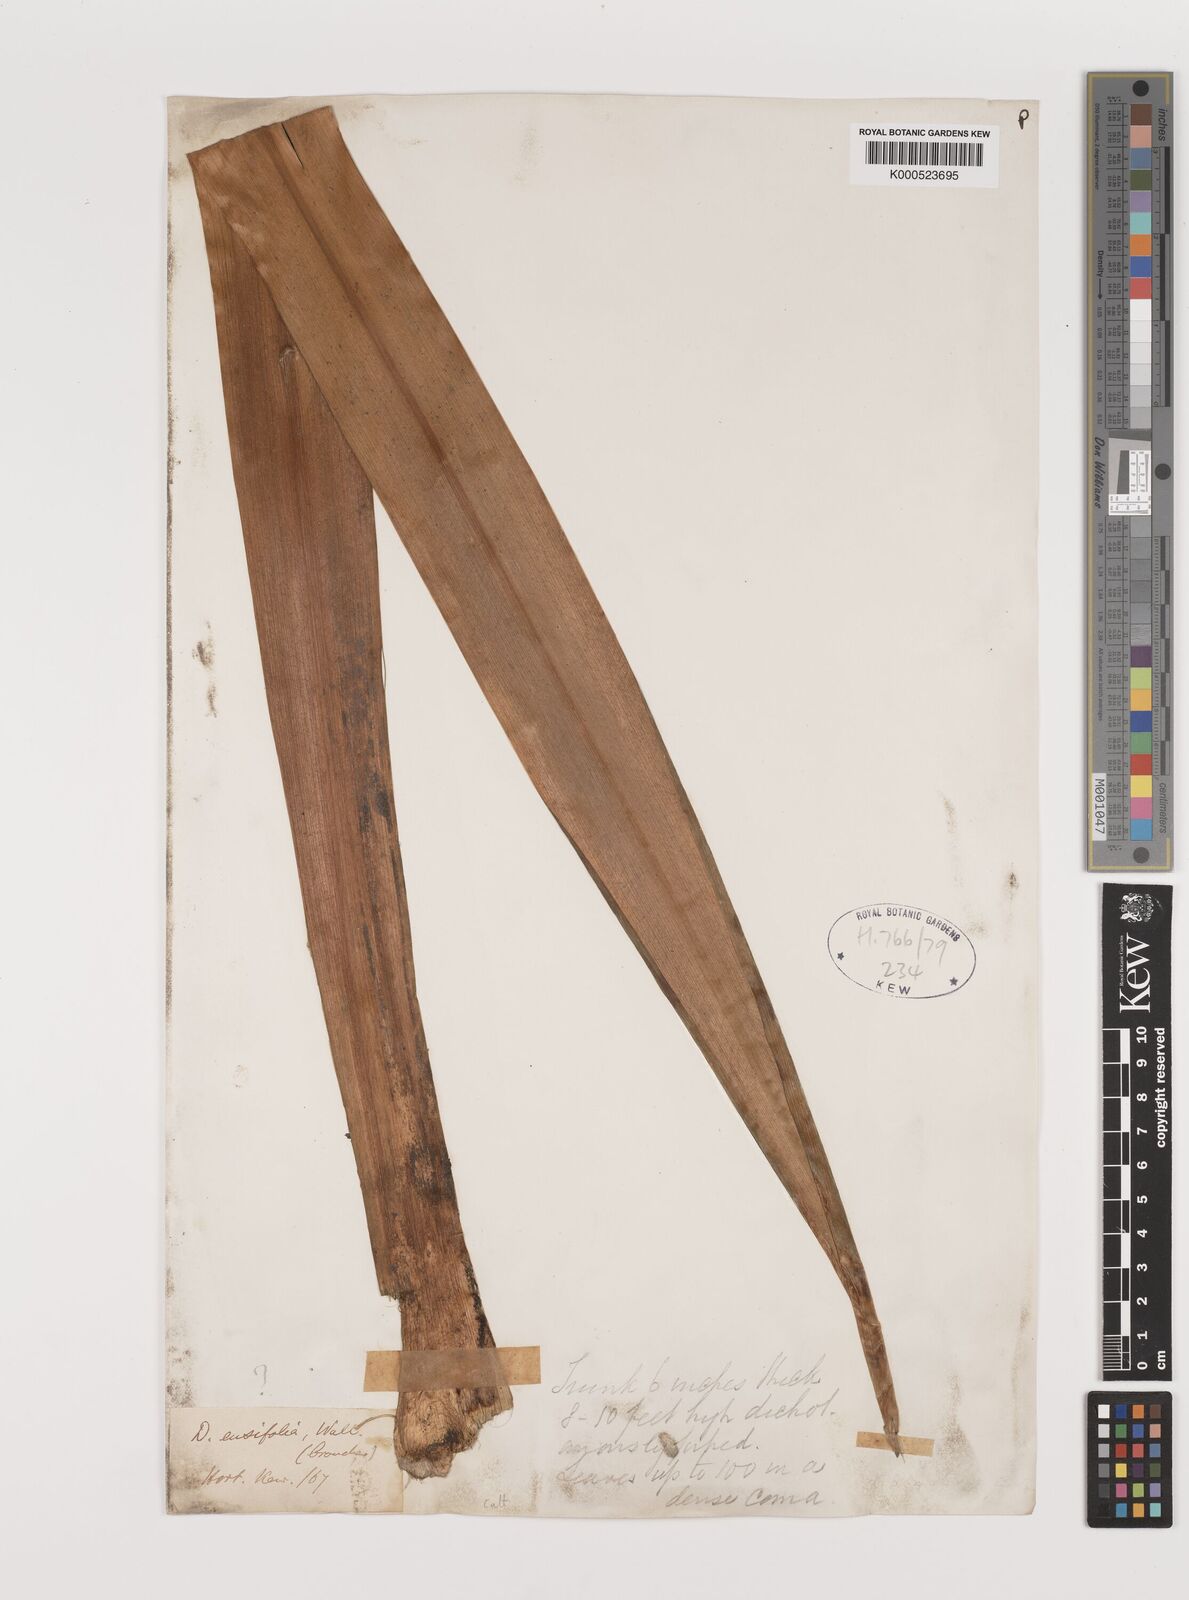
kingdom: Plantae
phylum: Tracheophyta
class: Liliopsida
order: Asparagales
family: Asparagaceae
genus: Dracaena
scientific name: Dracaena
